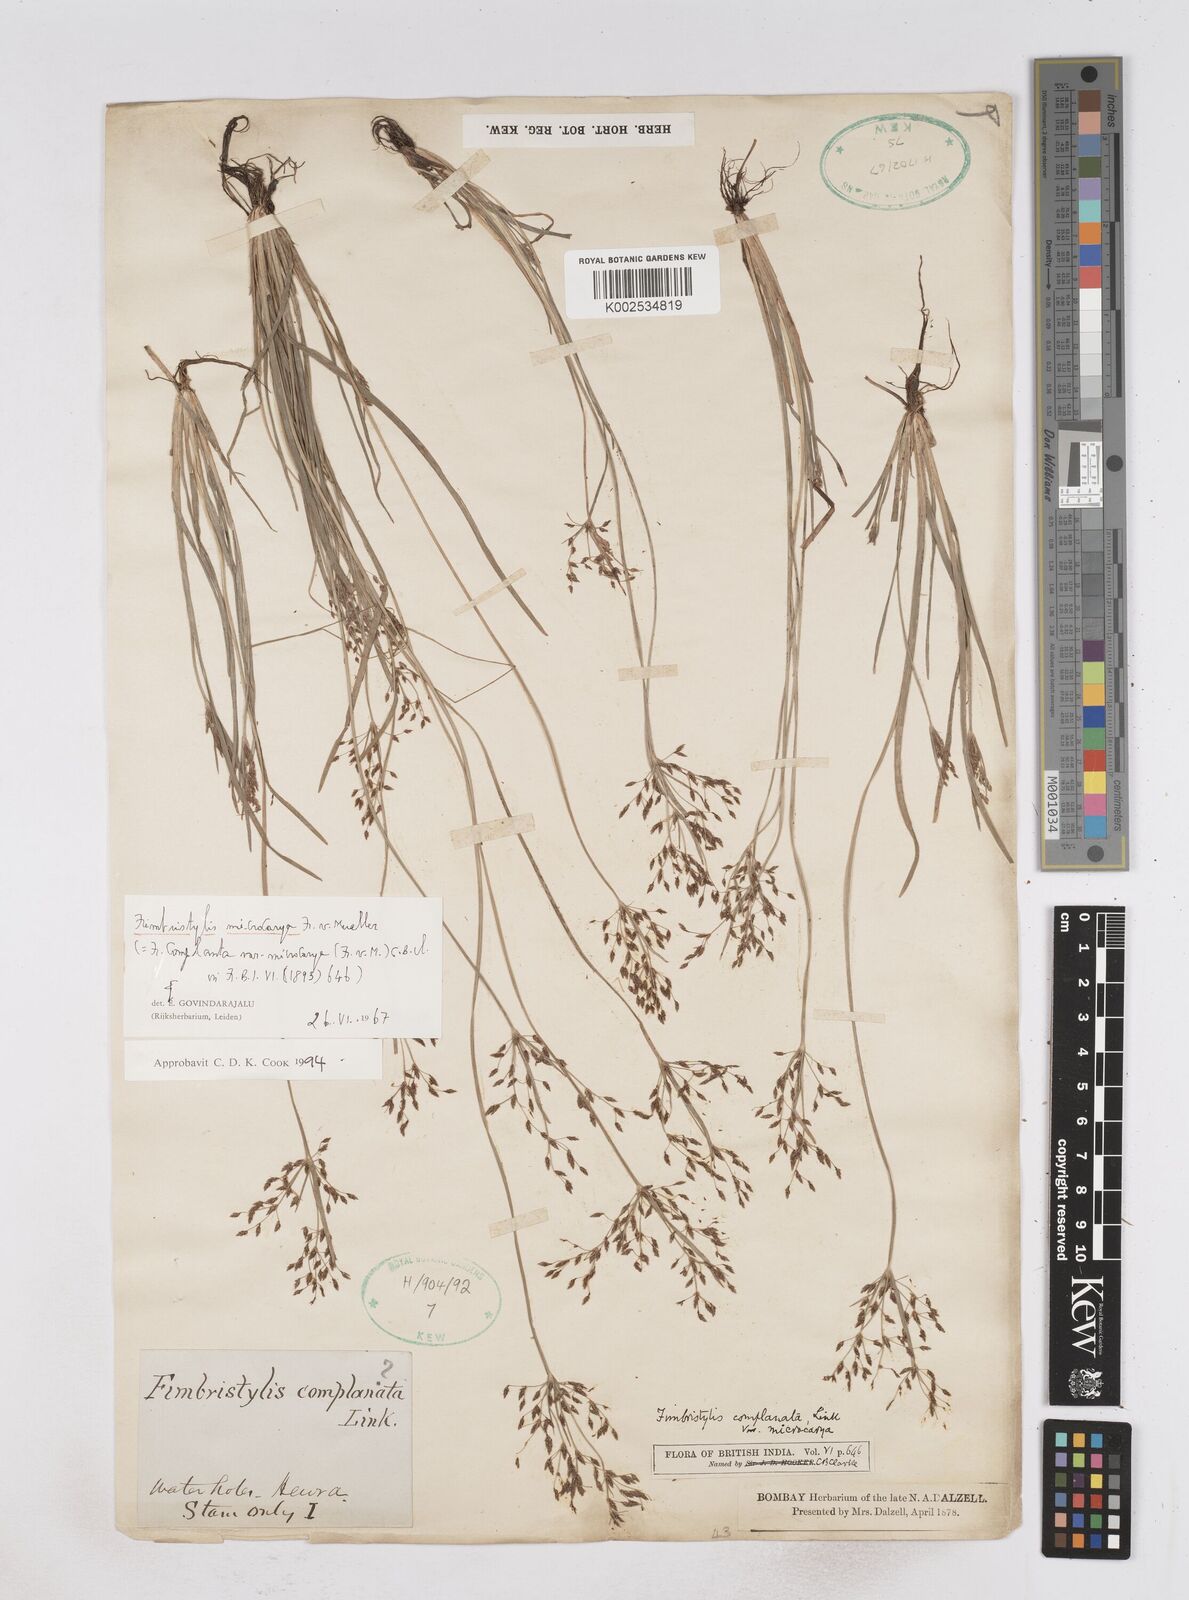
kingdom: Plantae
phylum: Tracheophyta
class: Liliopsida
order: Poales
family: Cyperaceae
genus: Fimbristylis
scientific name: Fimbristylis microcarya
